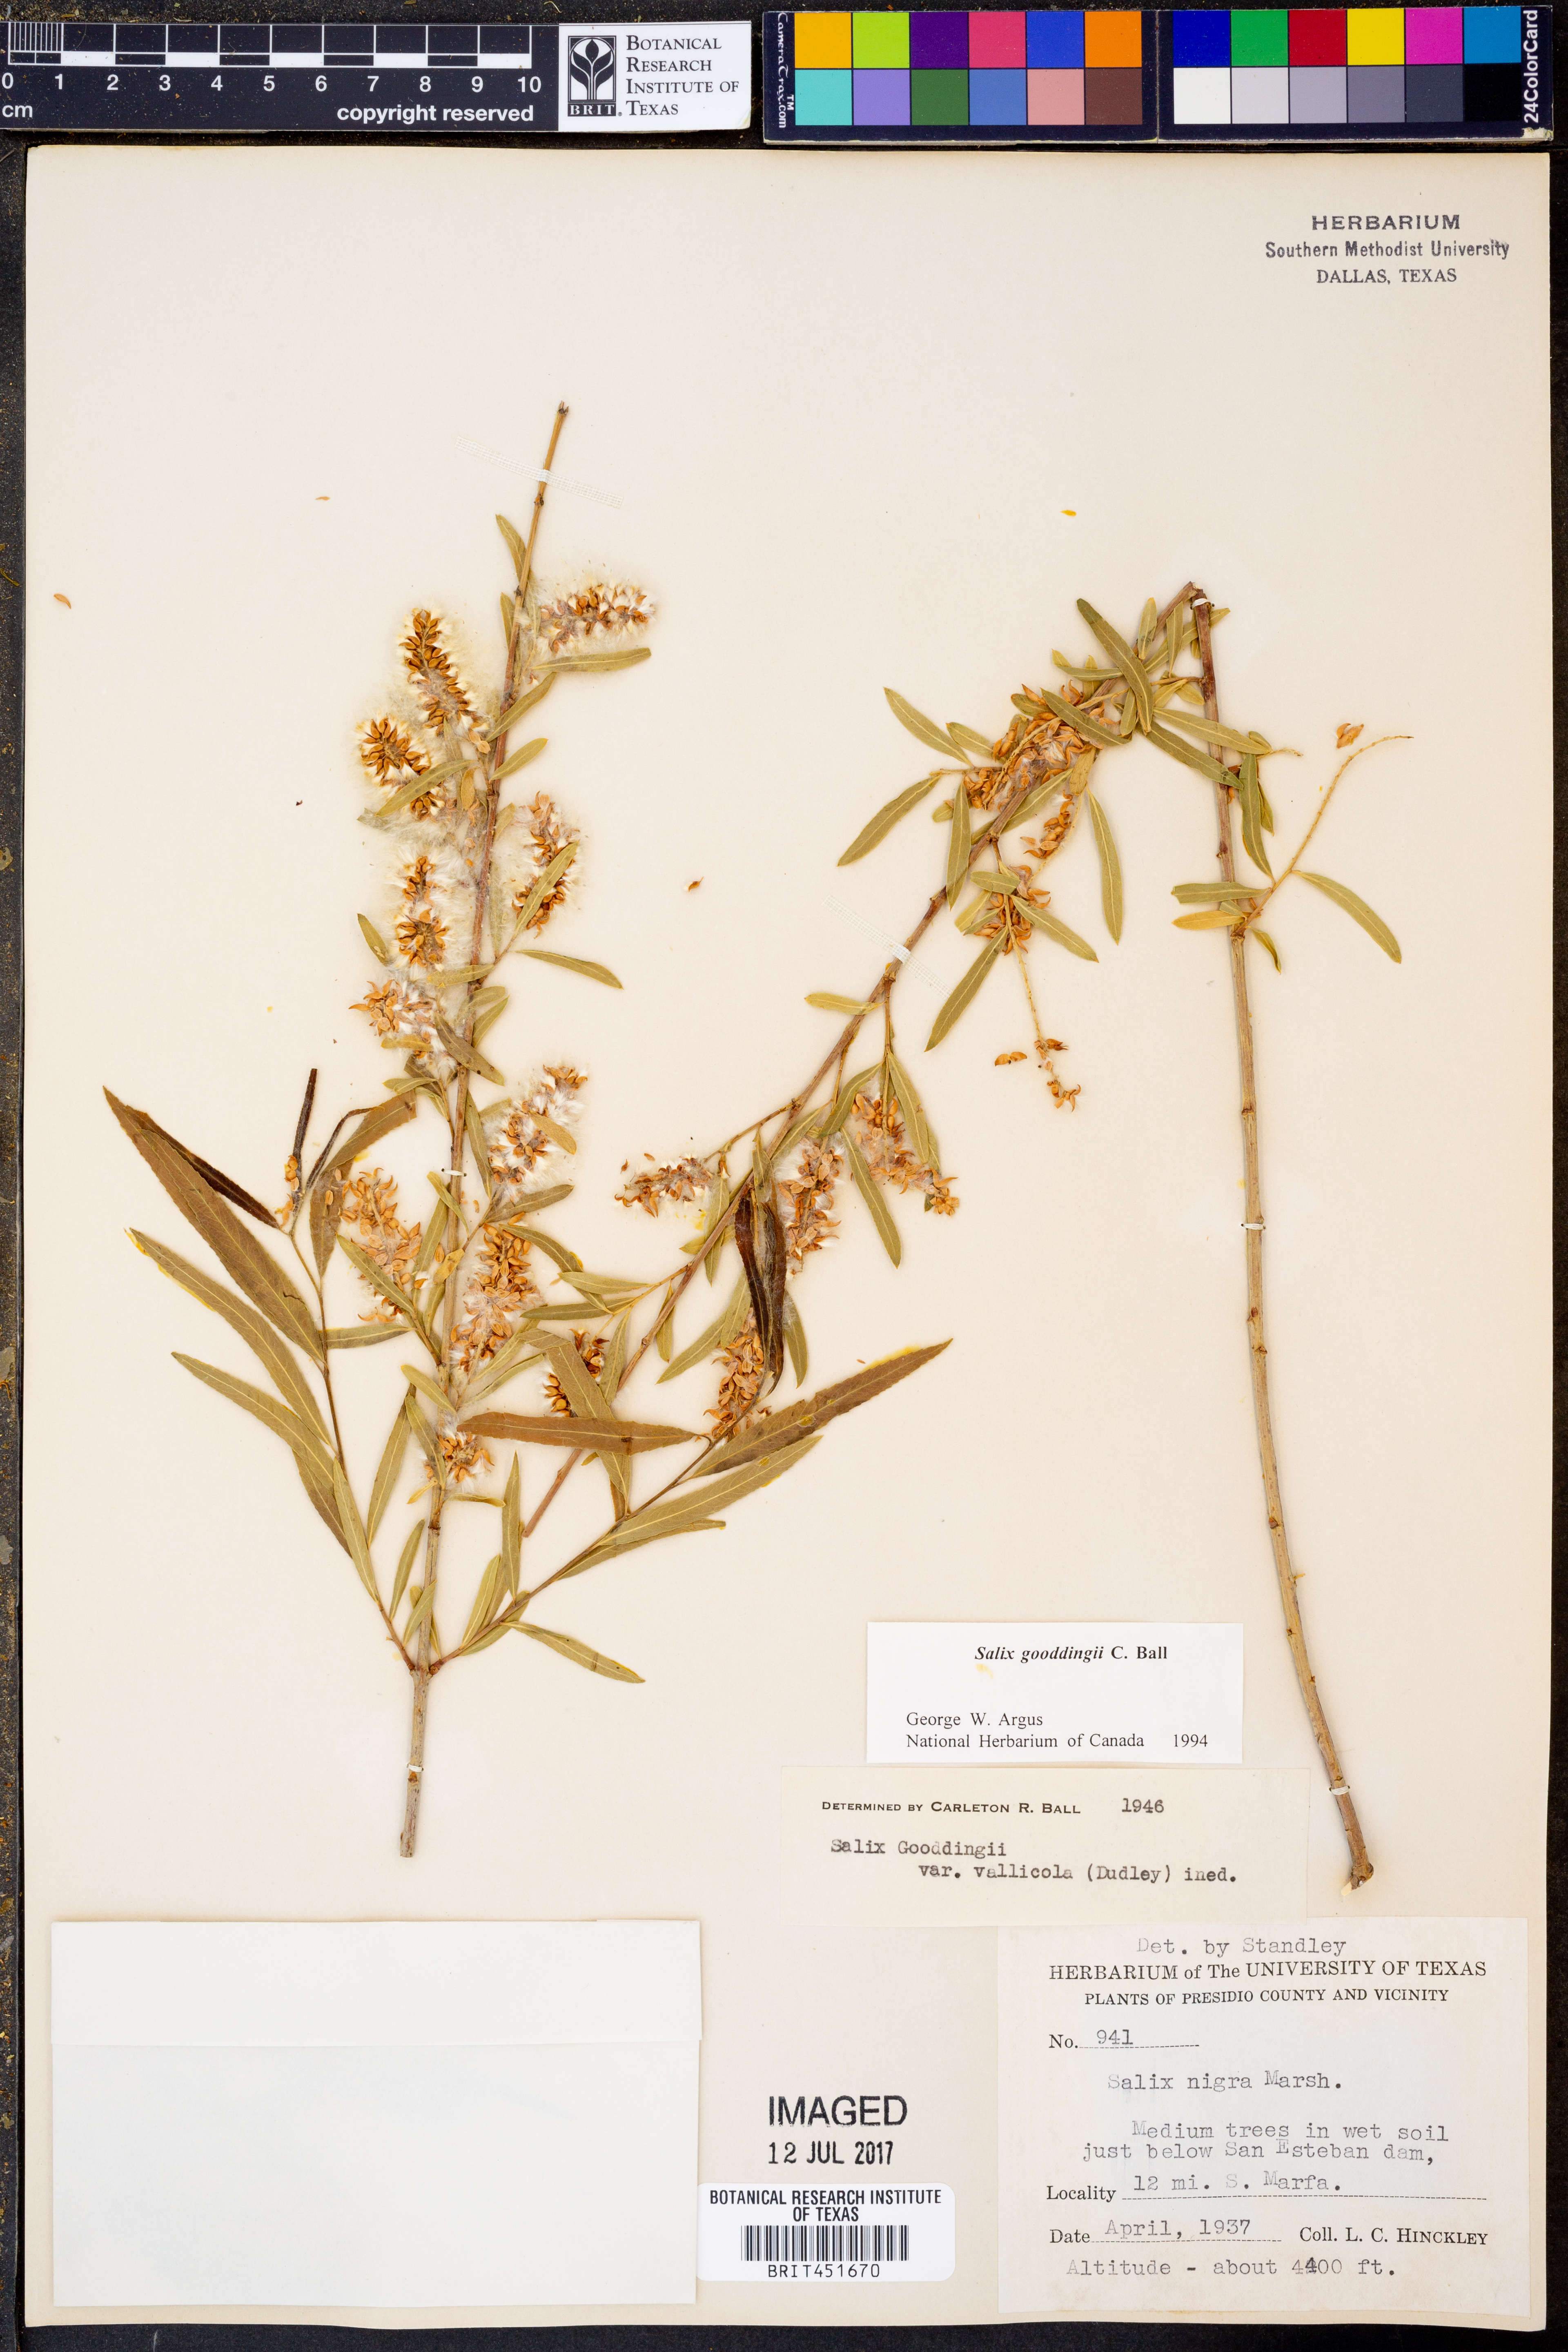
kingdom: Plantae
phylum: Tracheophyta
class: Magnoliopsida
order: Malpighiales
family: Salicaceae
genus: Salix
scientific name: Salix gooddingii
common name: Goodding's willow
